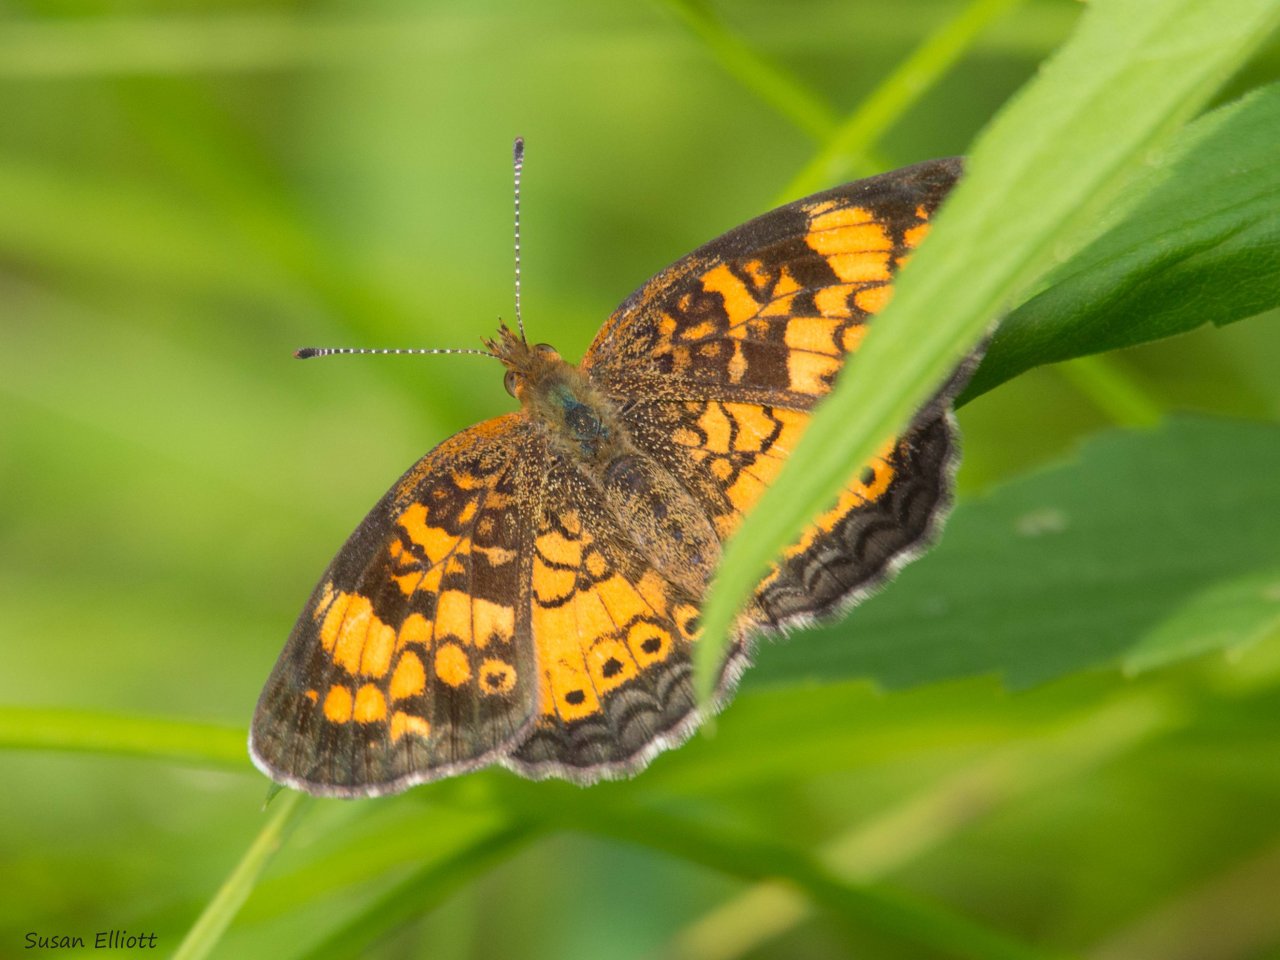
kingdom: Animalia
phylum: Arthropoda
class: Insecta
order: Lepidoptera
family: Nymphalidae
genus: Phyciodes
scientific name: Phyciodes
